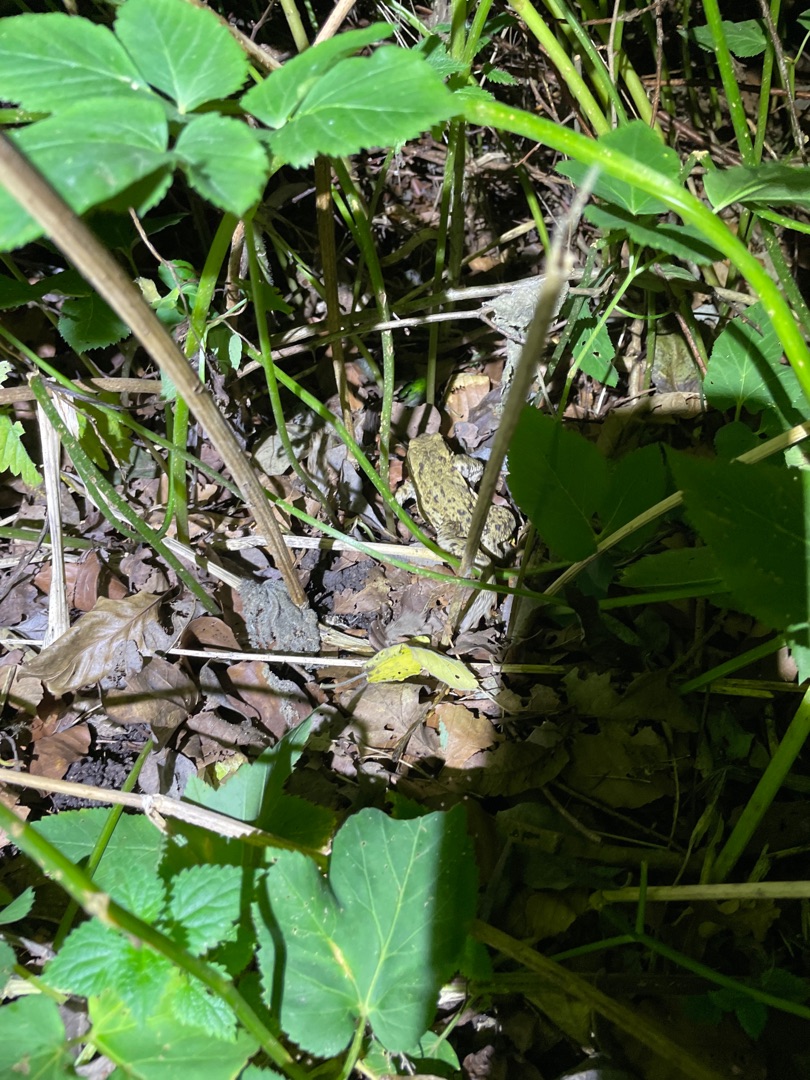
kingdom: Animalia
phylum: Chordata
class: Amphibia
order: Anura
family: Bufonidae
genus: Bufo
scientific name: Bufo bufo
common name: Skrubtudse
